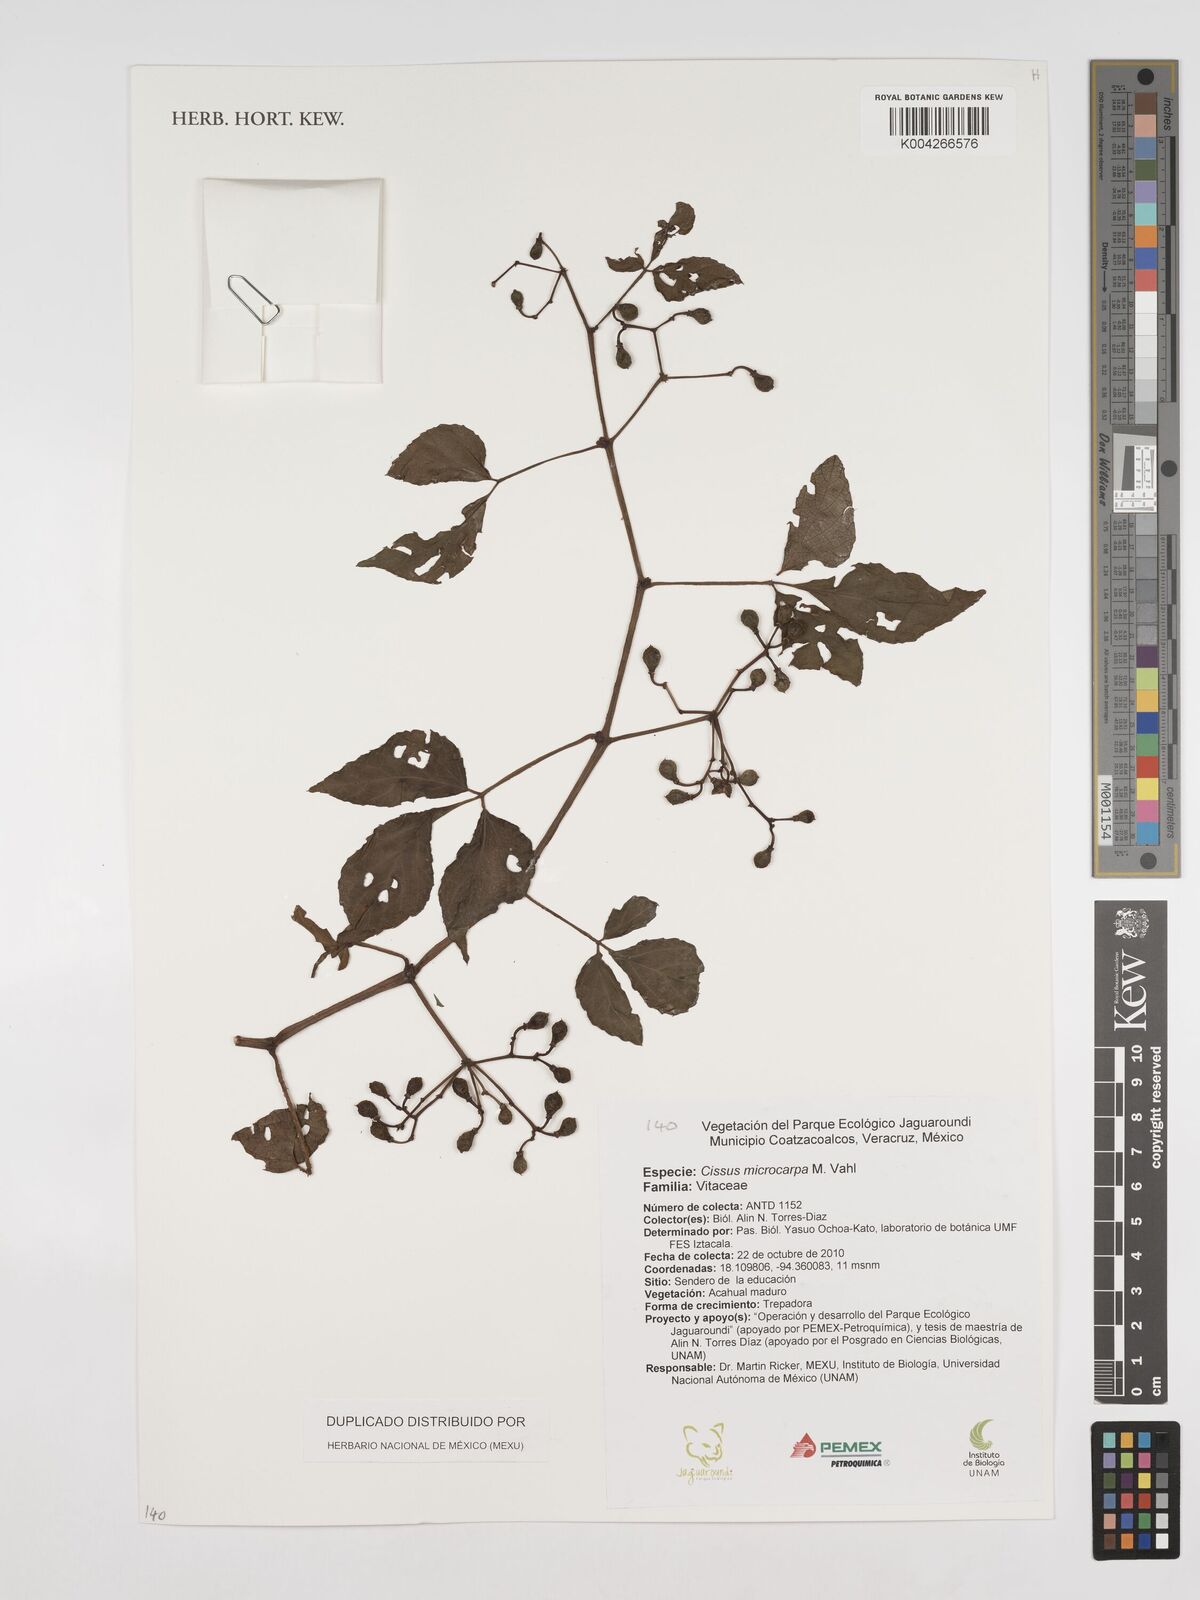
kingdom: Plantae
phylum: Tracheophyta
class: Magnoliopsida
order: Vitales
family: Vitaceae
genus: Cissus
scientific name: Cissus microcarpa
